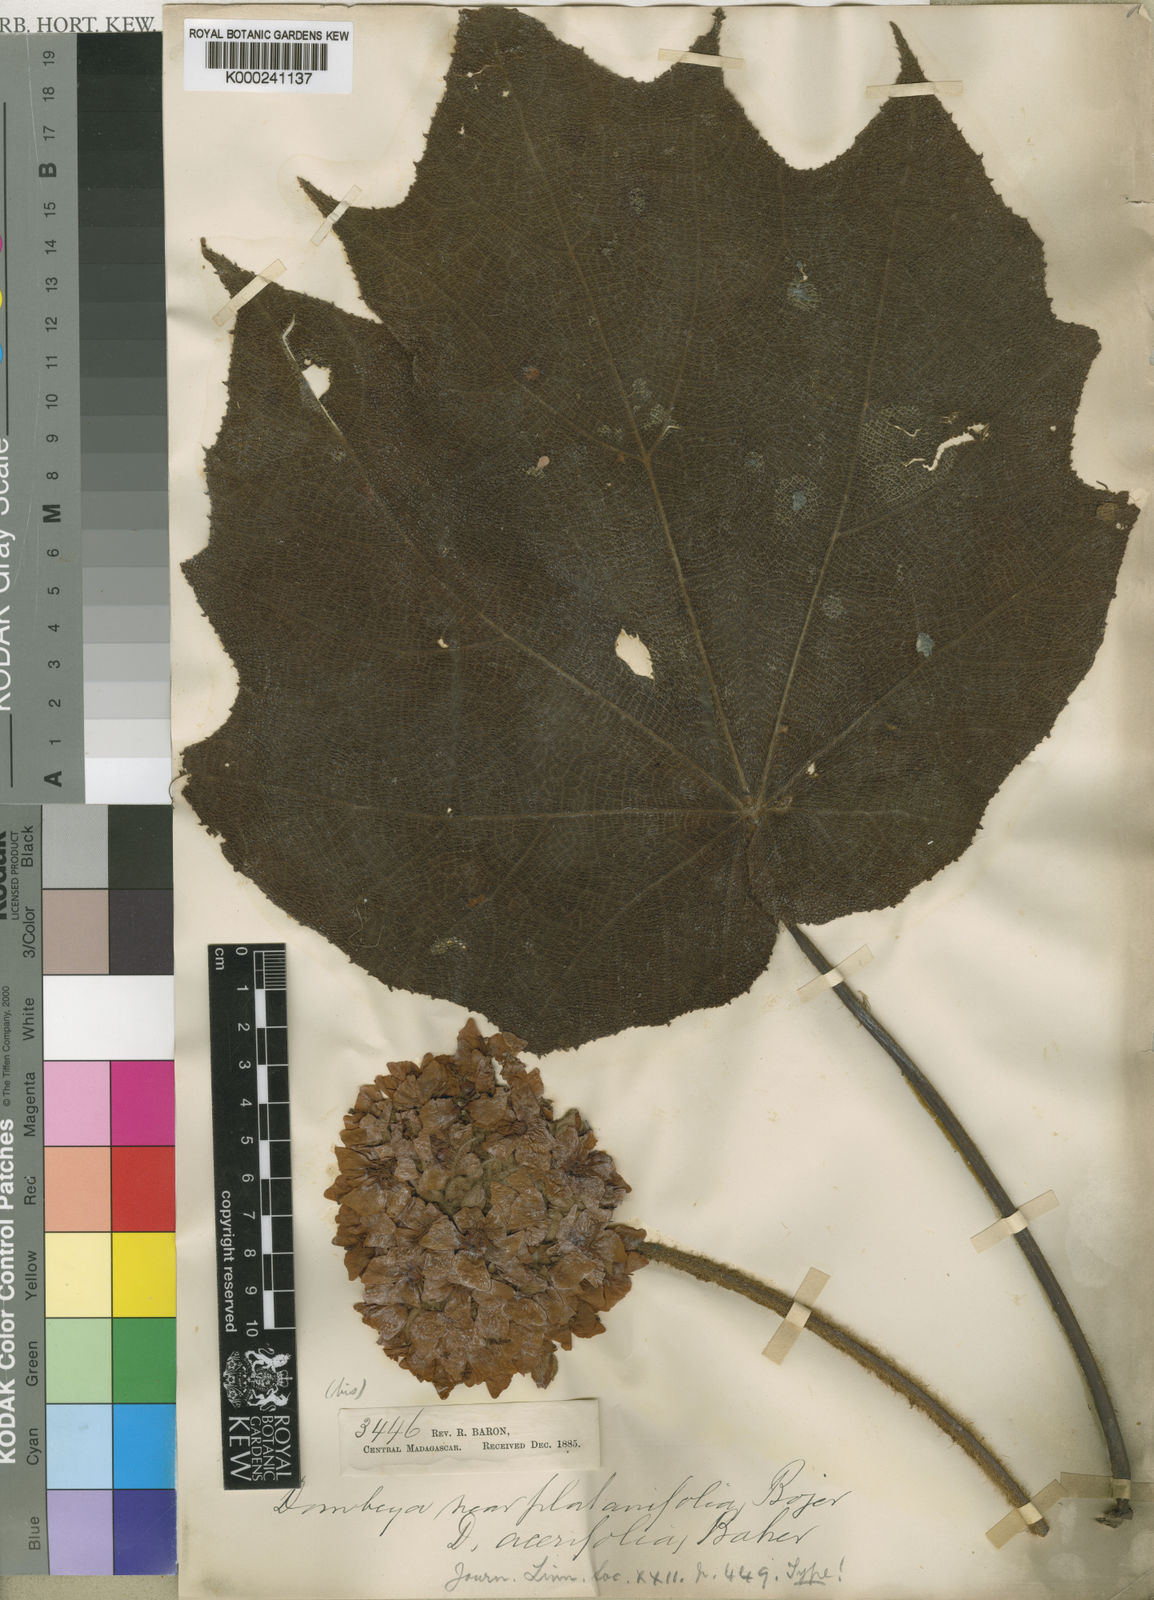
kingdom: Plantae
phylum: Tracheophyta
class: Magnoliopsida
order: Malvales
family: Malvaceae
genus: Dombeya
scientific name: Dombeya acutangula
